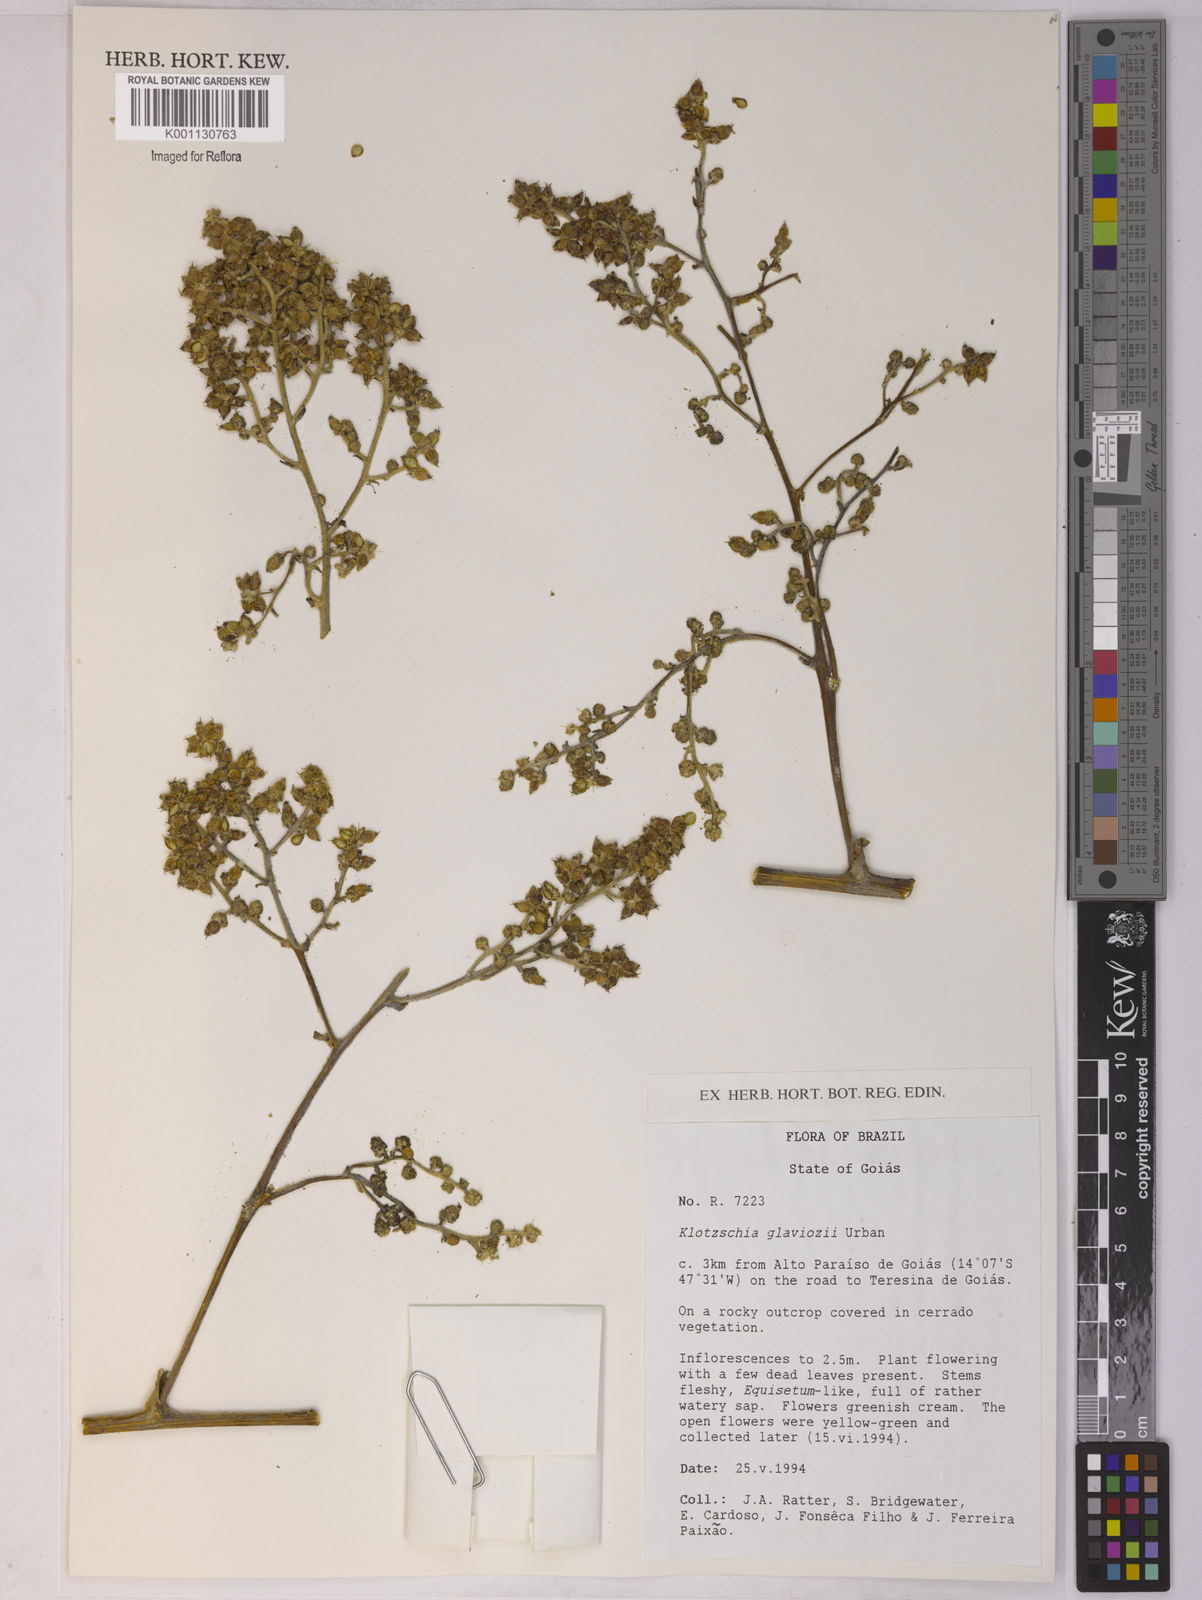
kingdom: Plantae
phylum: Tracheophyta
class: Magnoliopsida
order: Apiales
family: Apiaceae
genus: Klotzschia
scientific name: Klotzschia glaziovii
